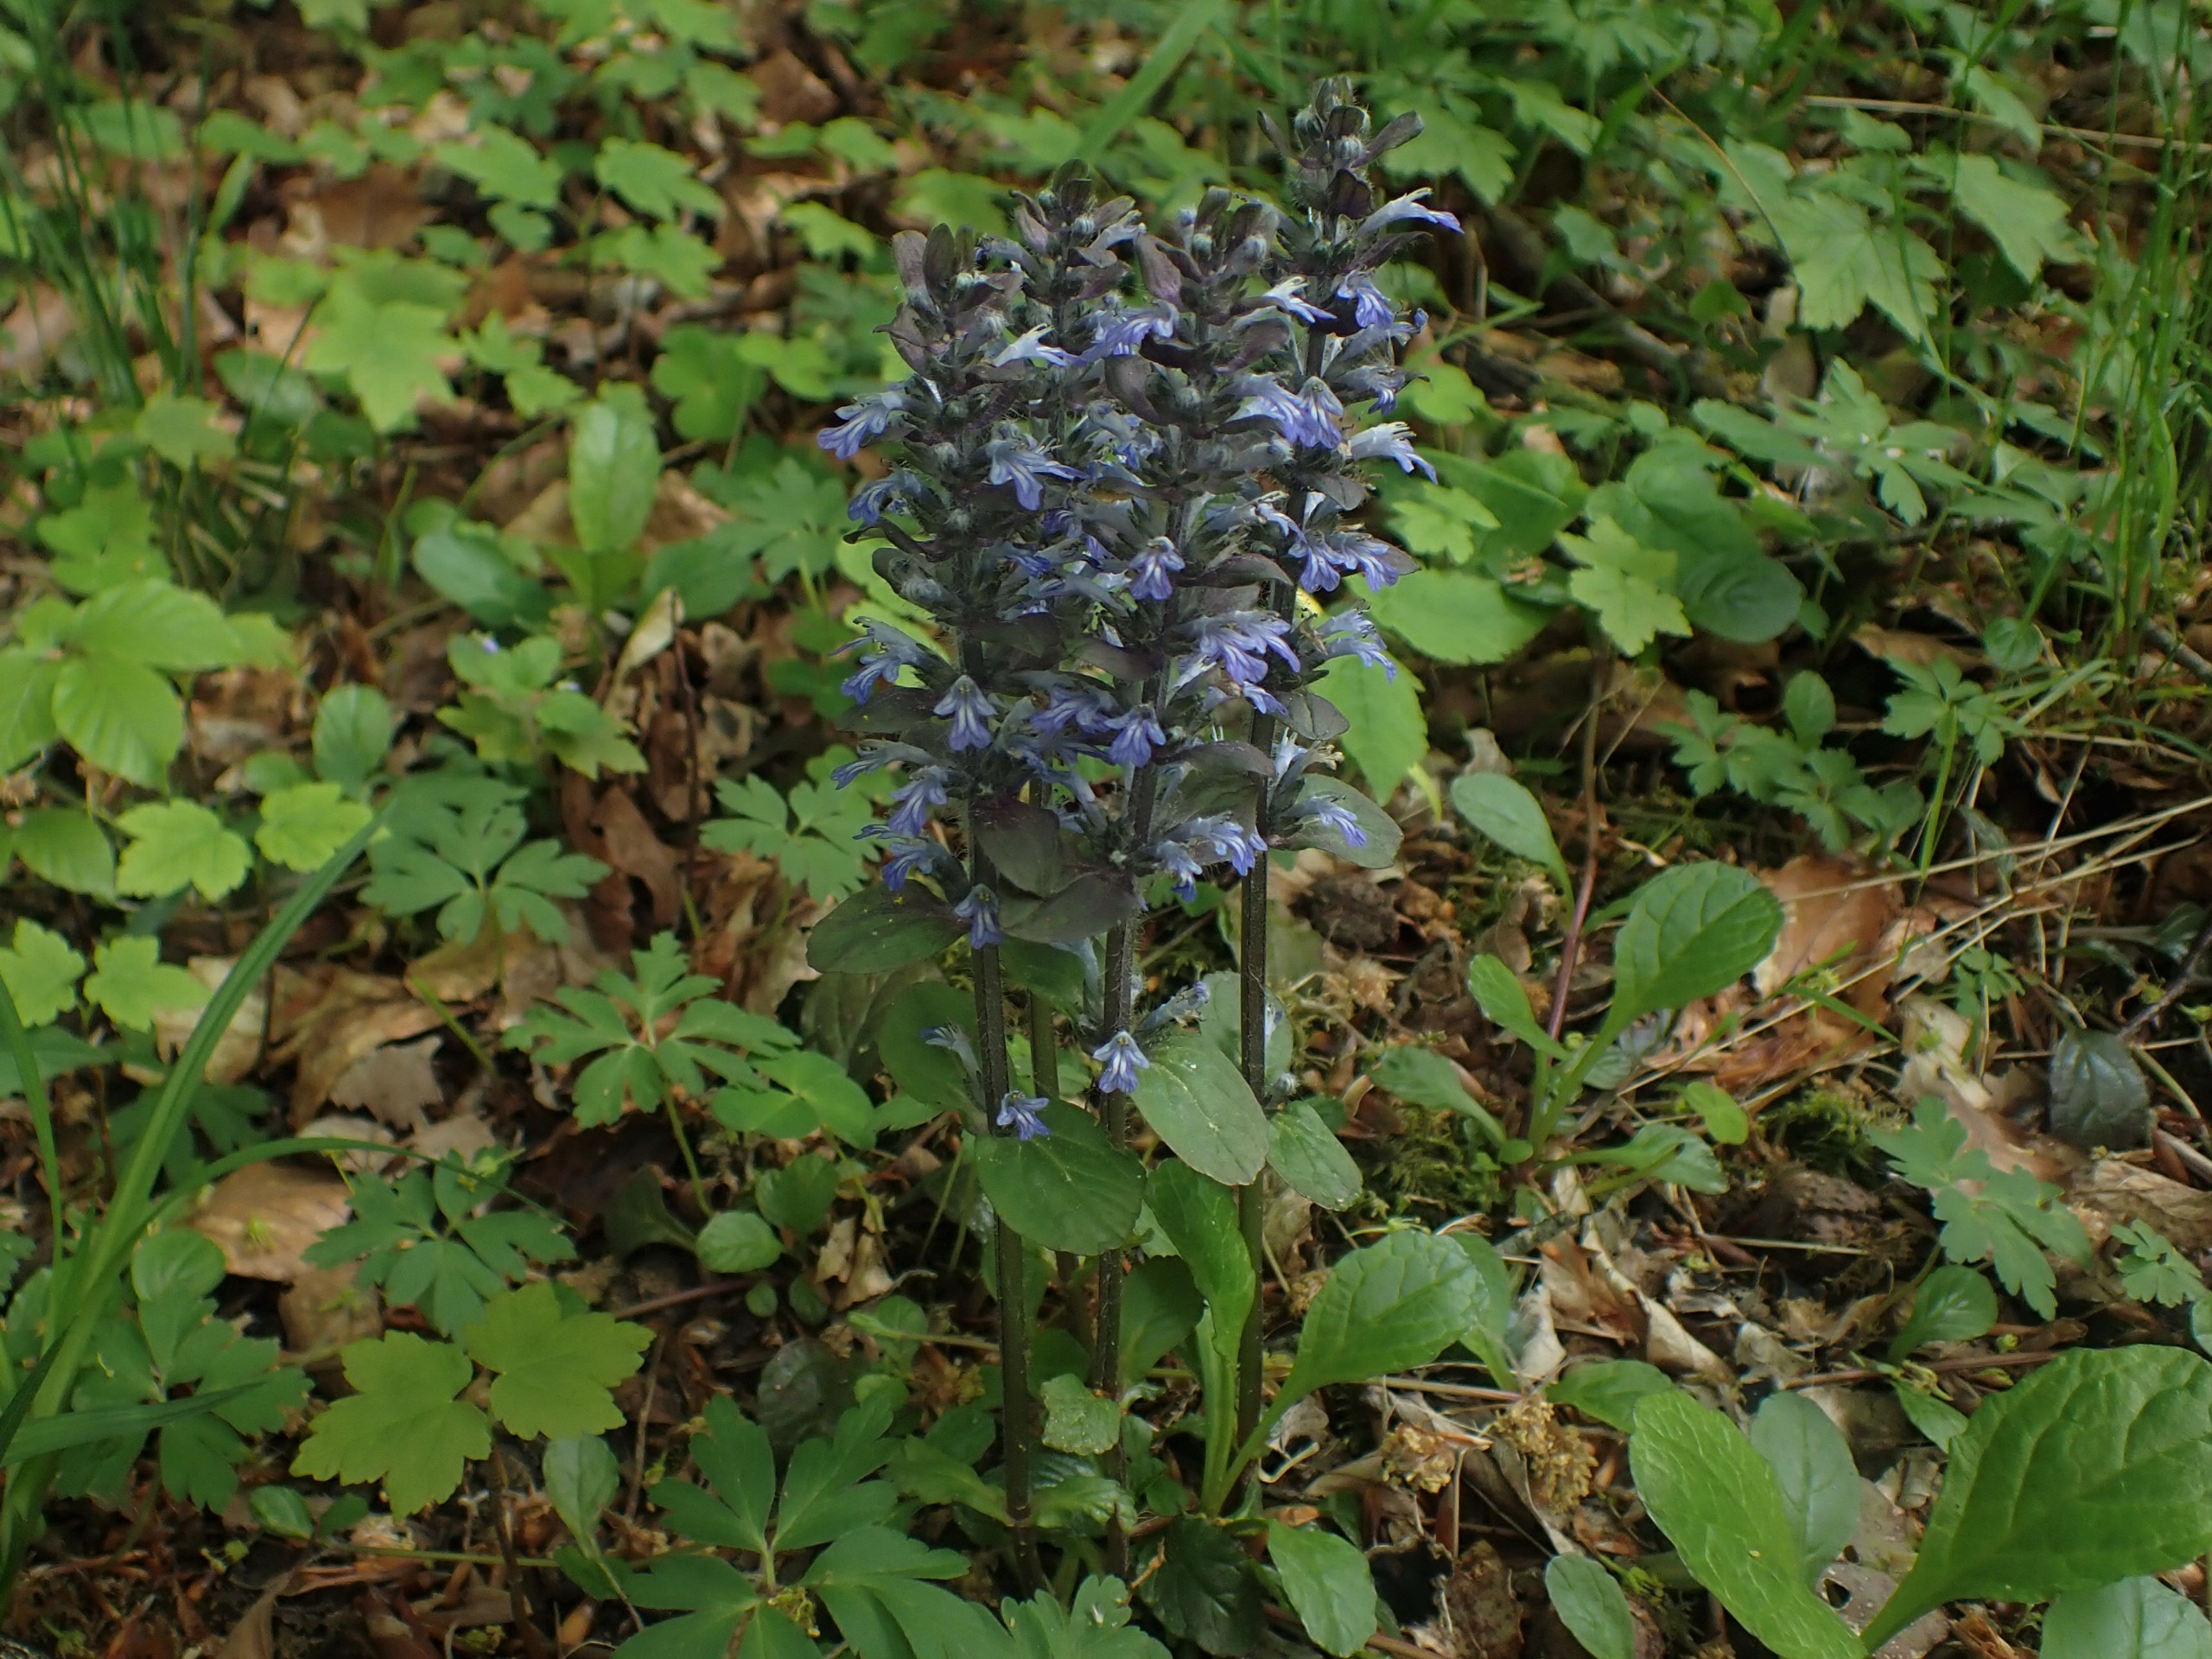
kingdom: Plantae
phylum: Tracheophyta
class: Magnoliopsida
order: Lamiales
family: Lamiaceae
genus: Ajuga
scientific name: Ajuga reptans
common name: Krybende læbeløs
